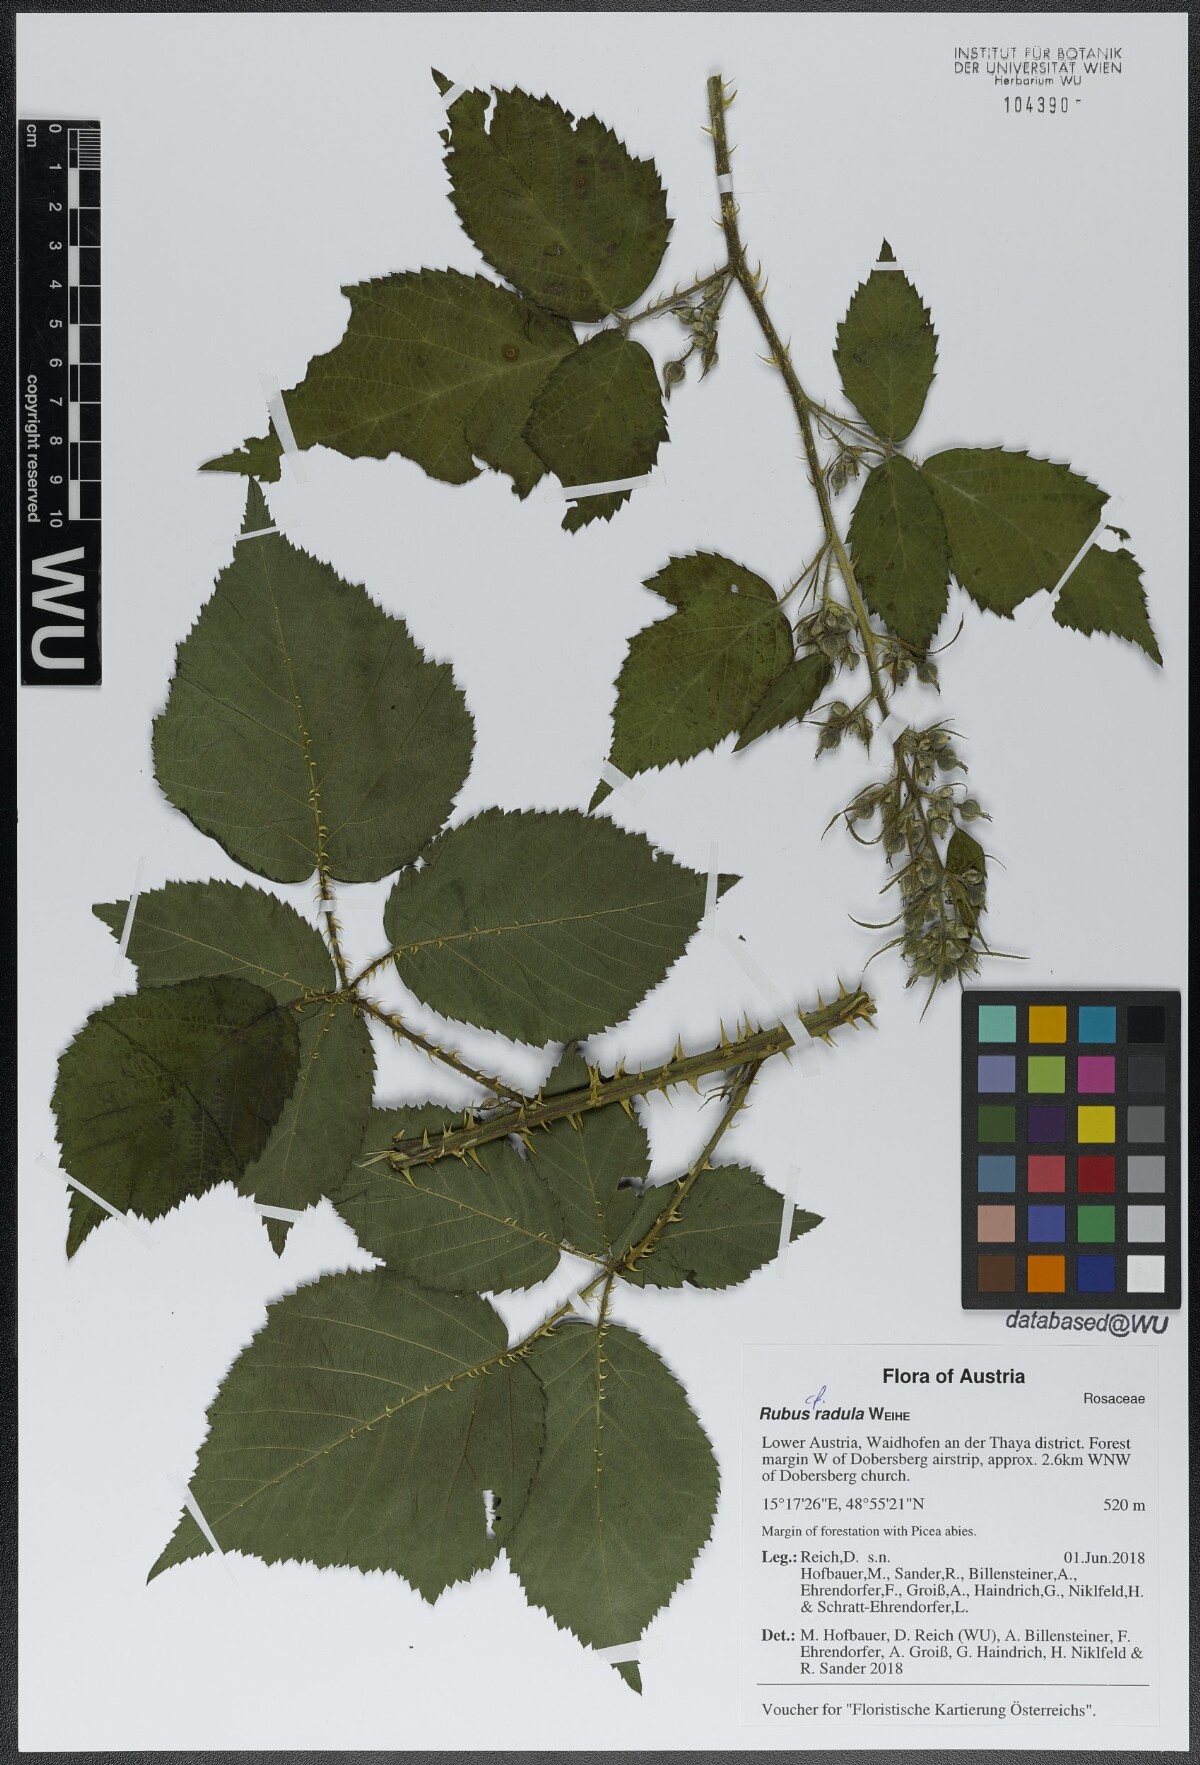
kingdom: Plantae
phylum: Tracheophyta
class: Magnoliopsida
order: Rosales
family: Rosaceae
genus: Rubus
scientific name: Rubus radula
